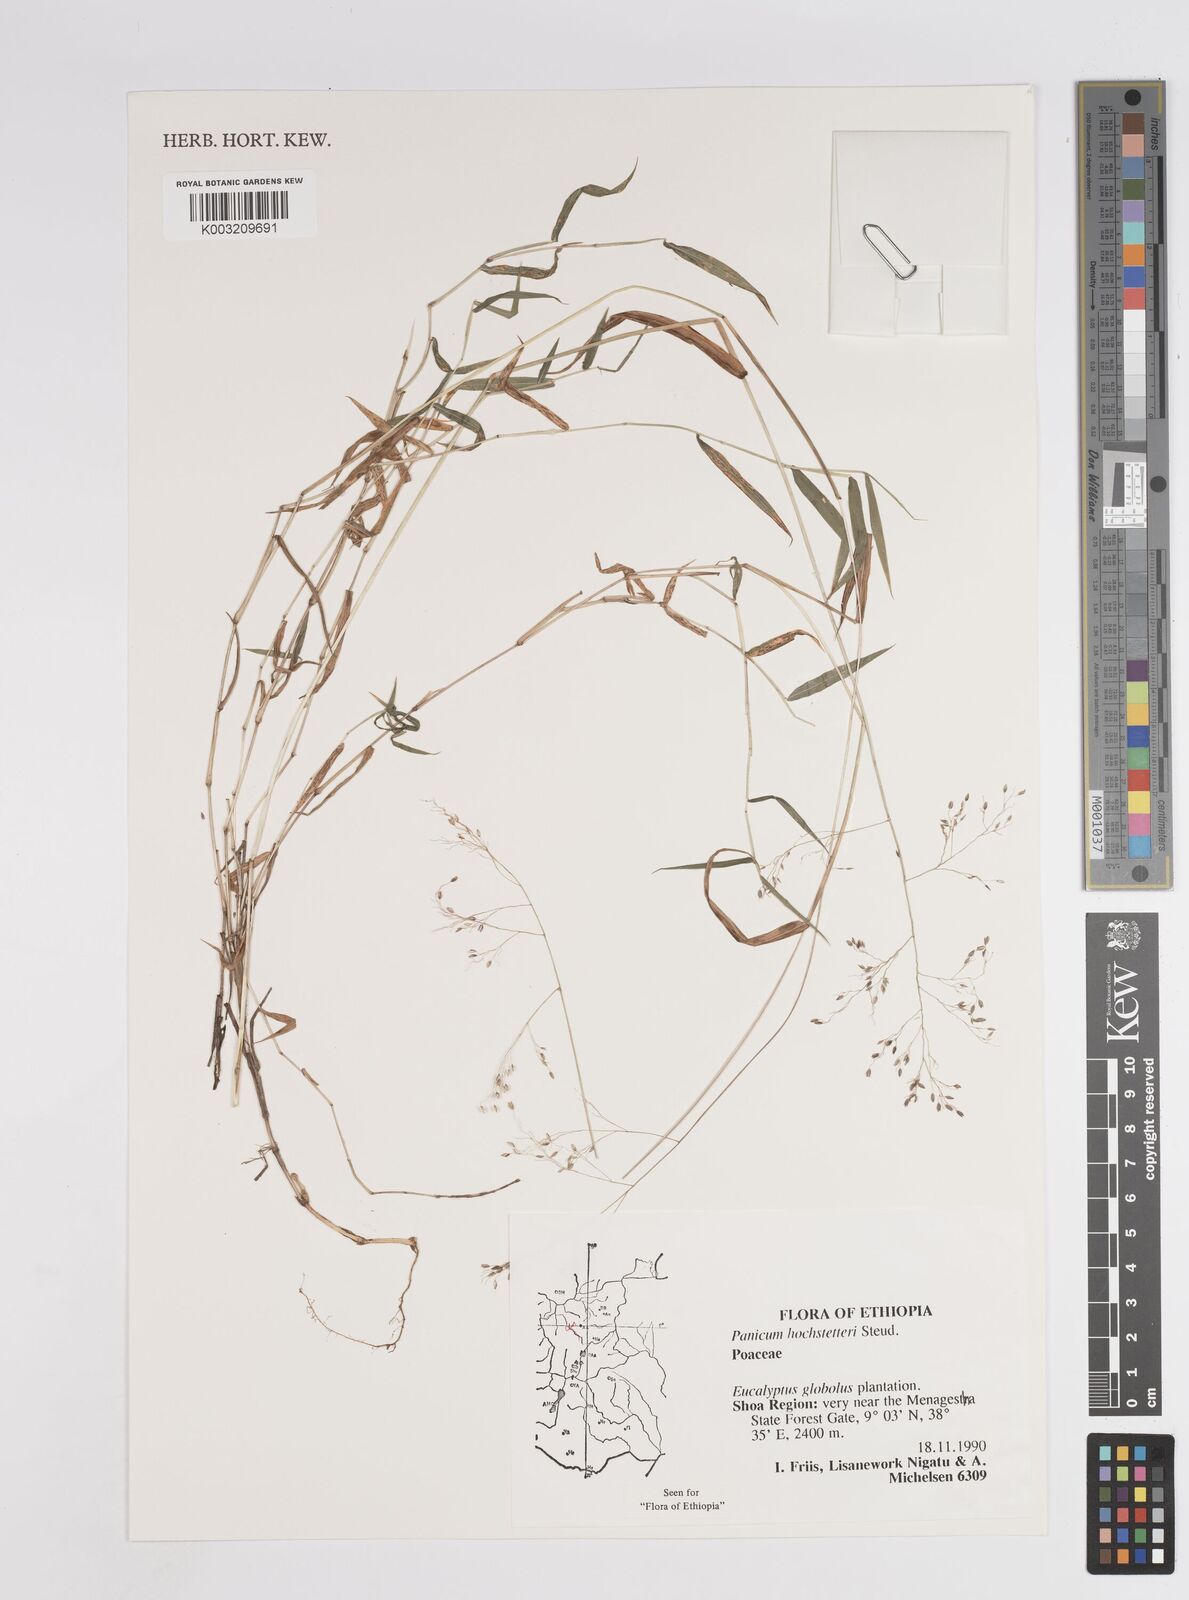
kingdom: Plantae
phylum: Tracheophyta
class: Liliopsida
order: Poales
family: Poaceae
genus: Panicum
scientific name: Panicum hochstetteri
